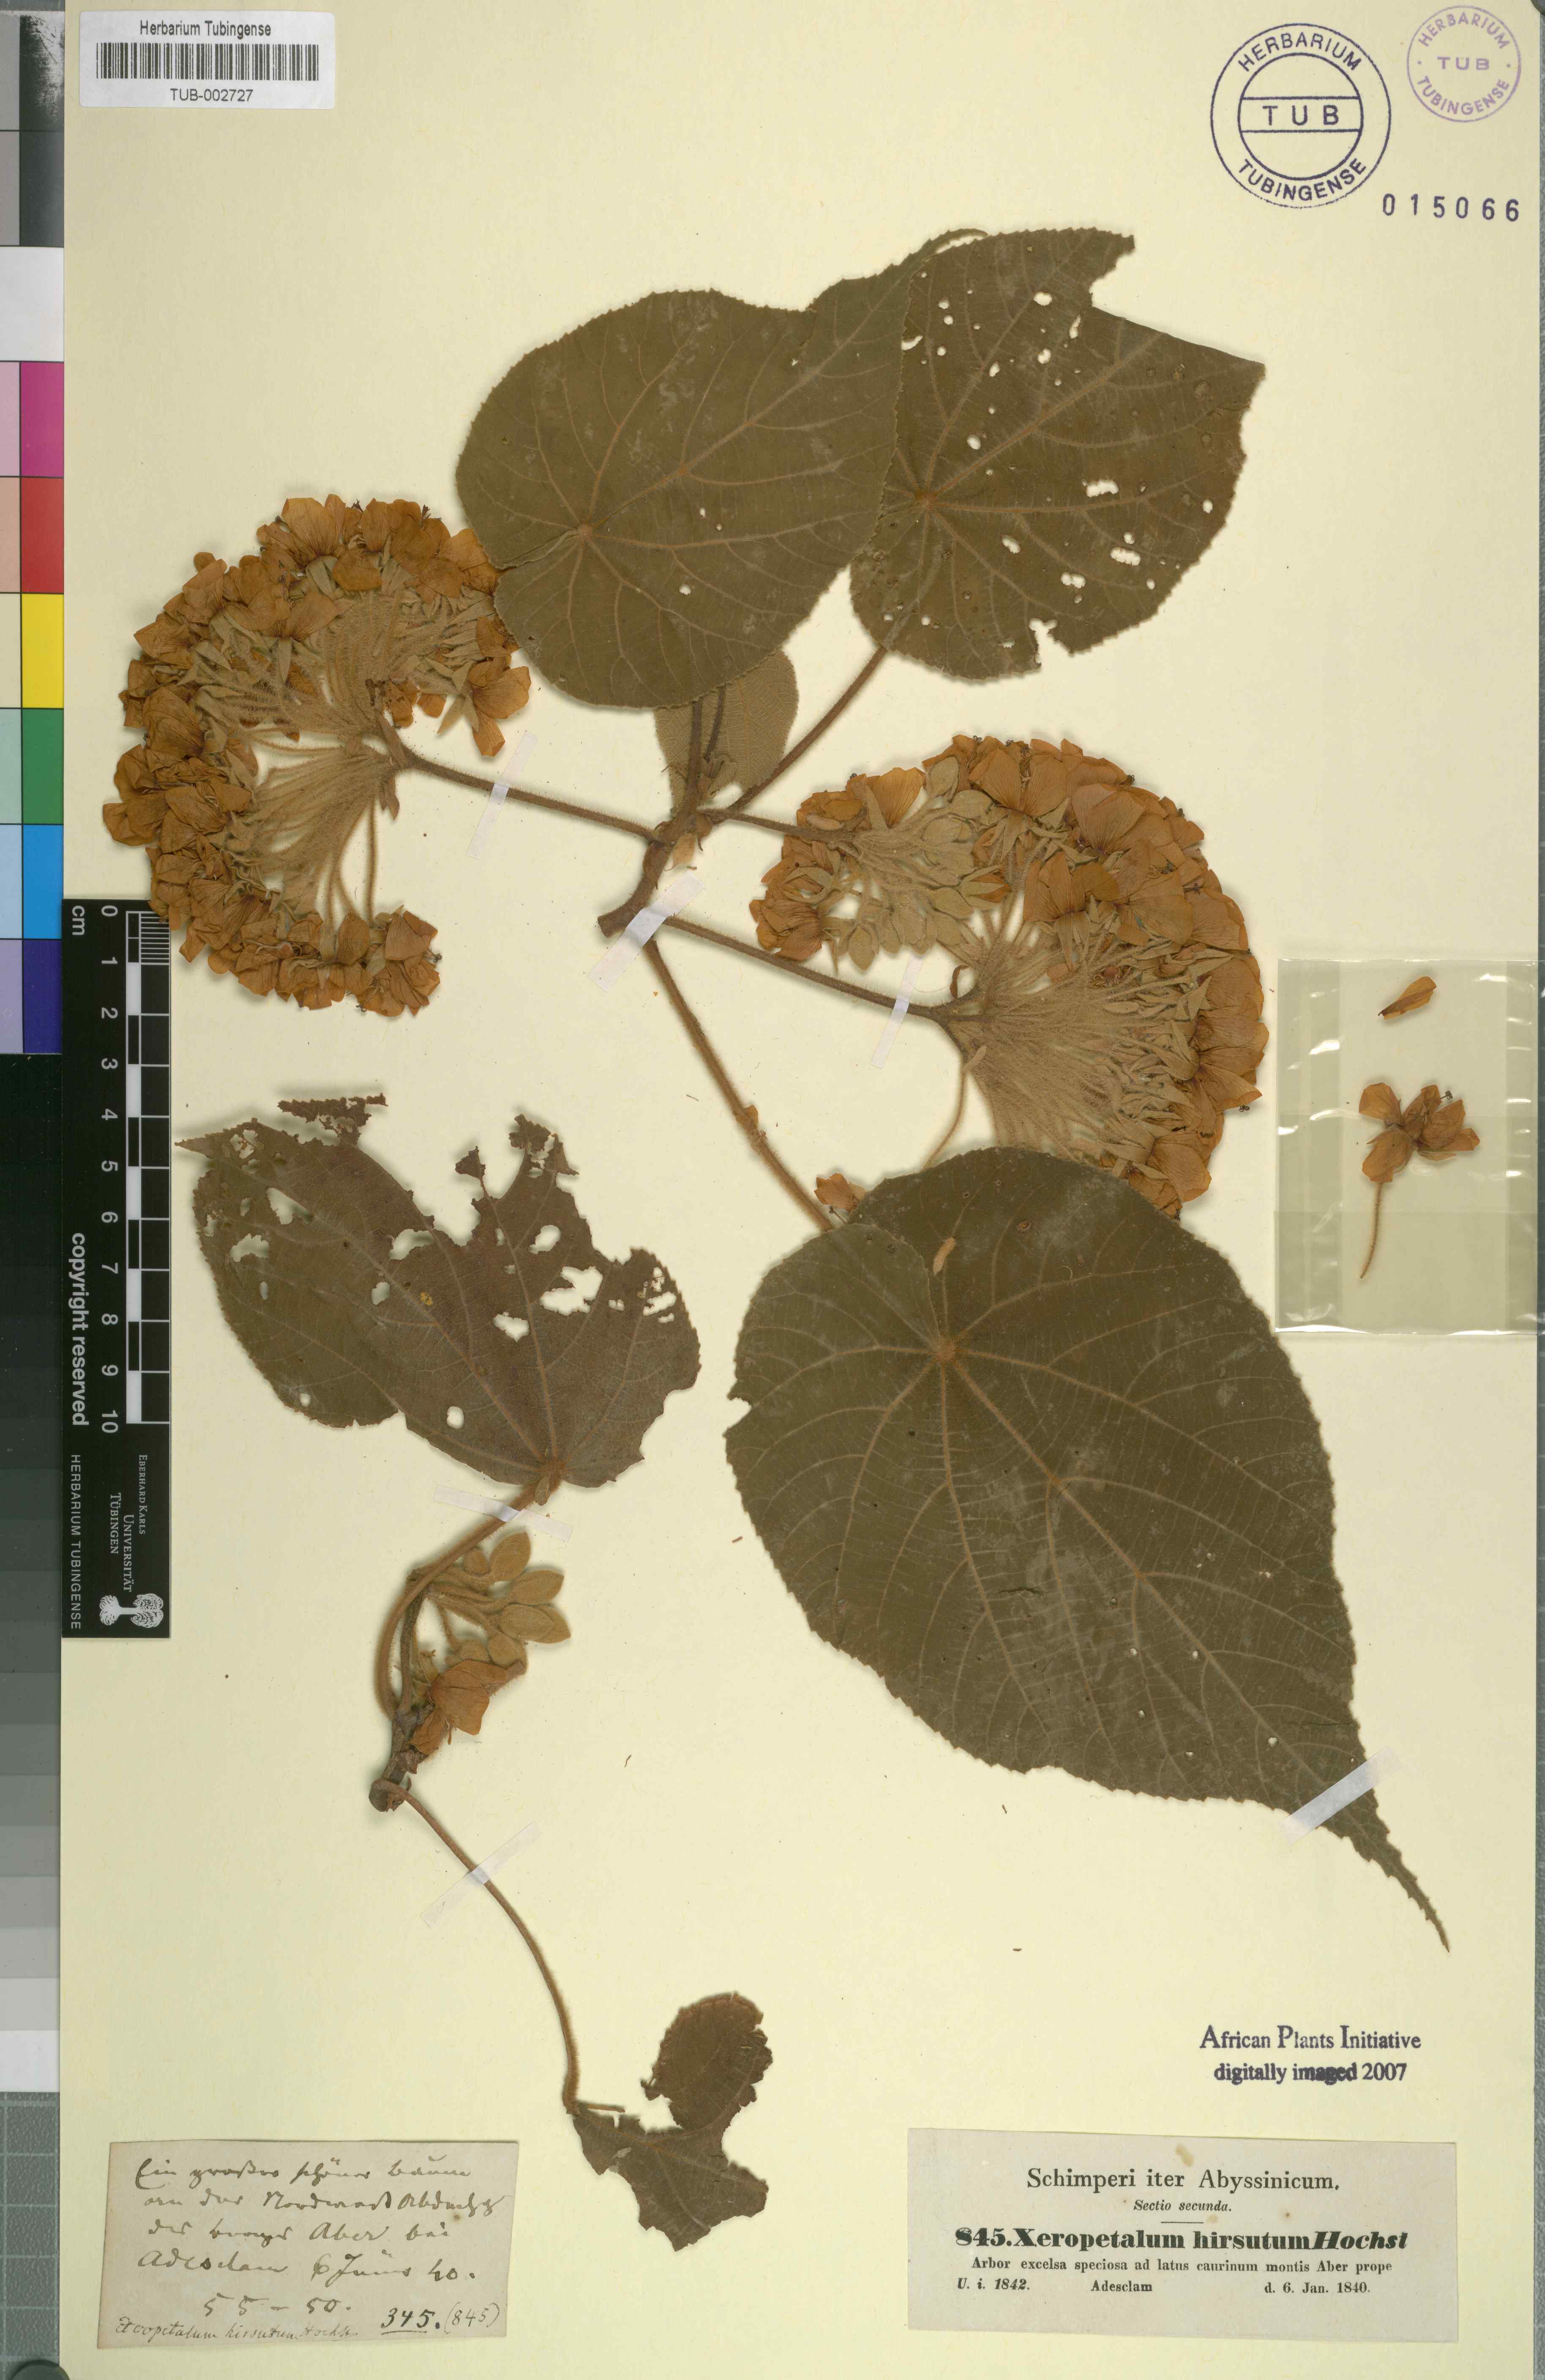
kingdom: Plantae
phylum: Tracheophyta
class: Magnoliopsida
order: Malvales
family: Malvaceae
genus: Dombeya
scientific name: Dombeya torrida
